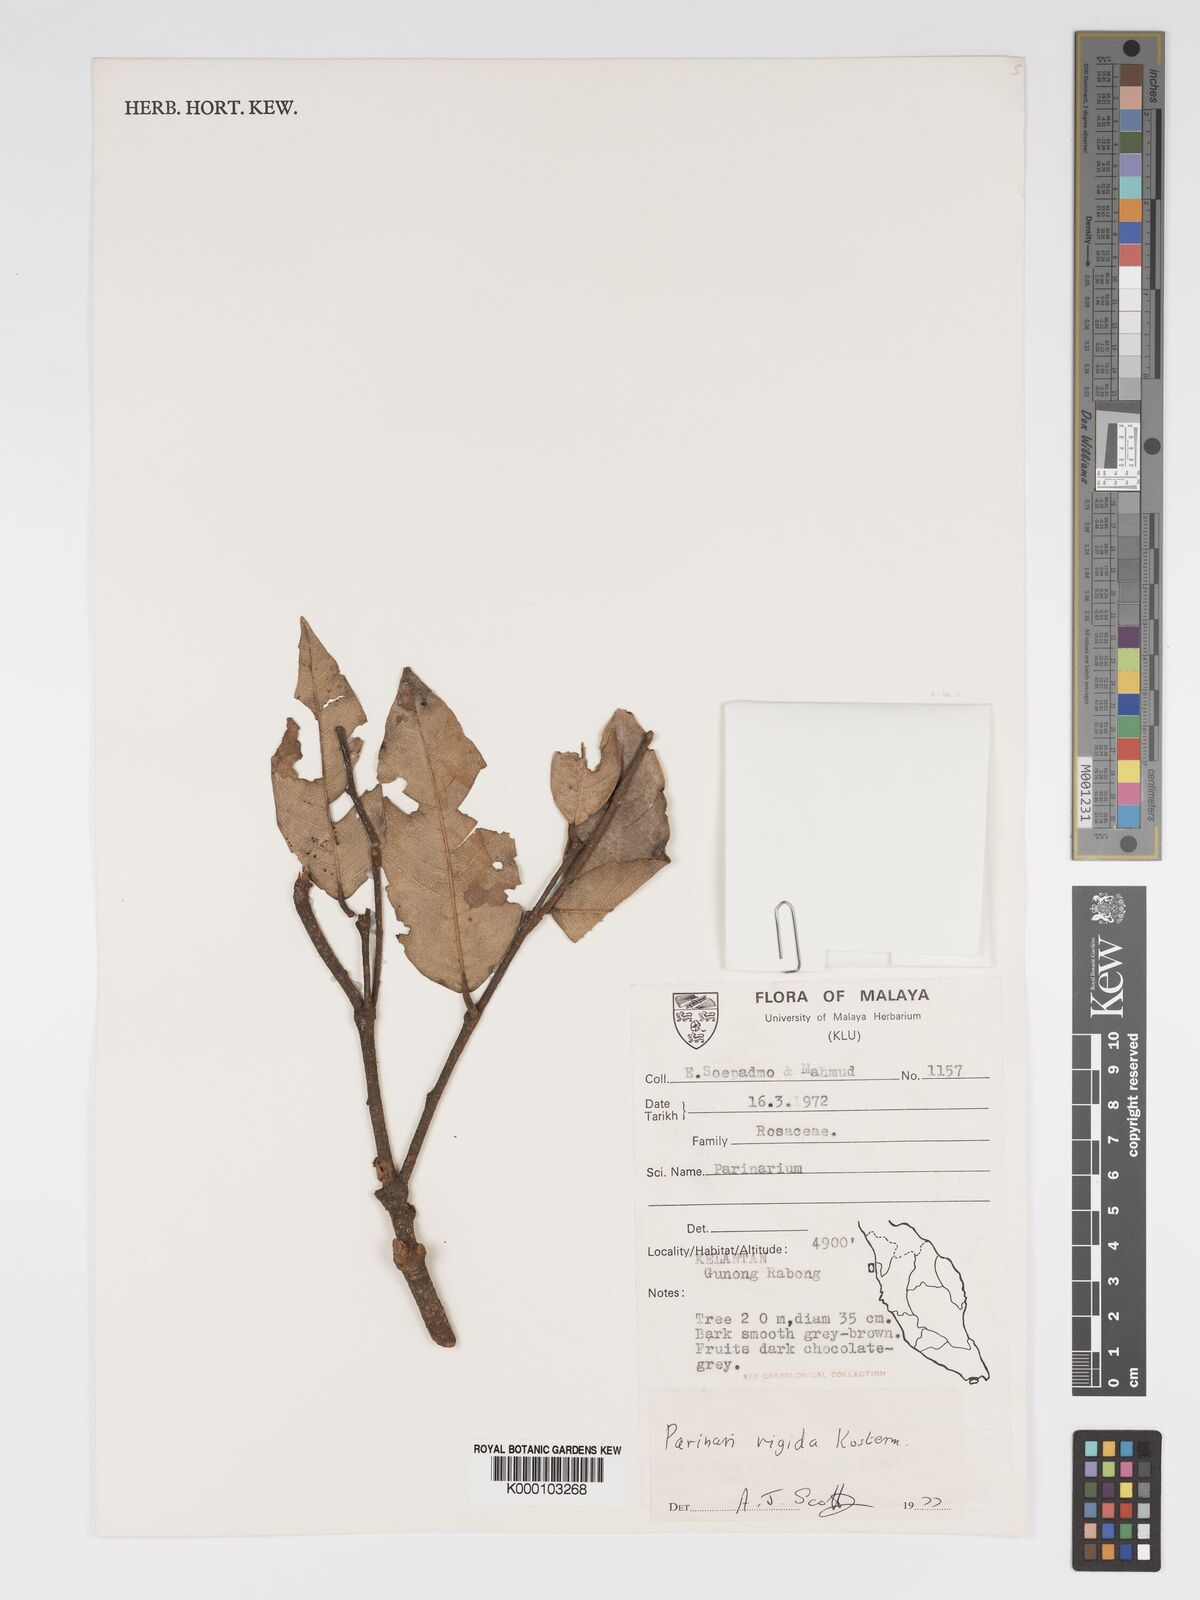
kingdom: Plantae
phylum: Tracheophyta
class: Magnoliopsida
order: Malpighiales
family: Chrysobalanaceae
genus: Parinari
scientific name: Parinari rigida
